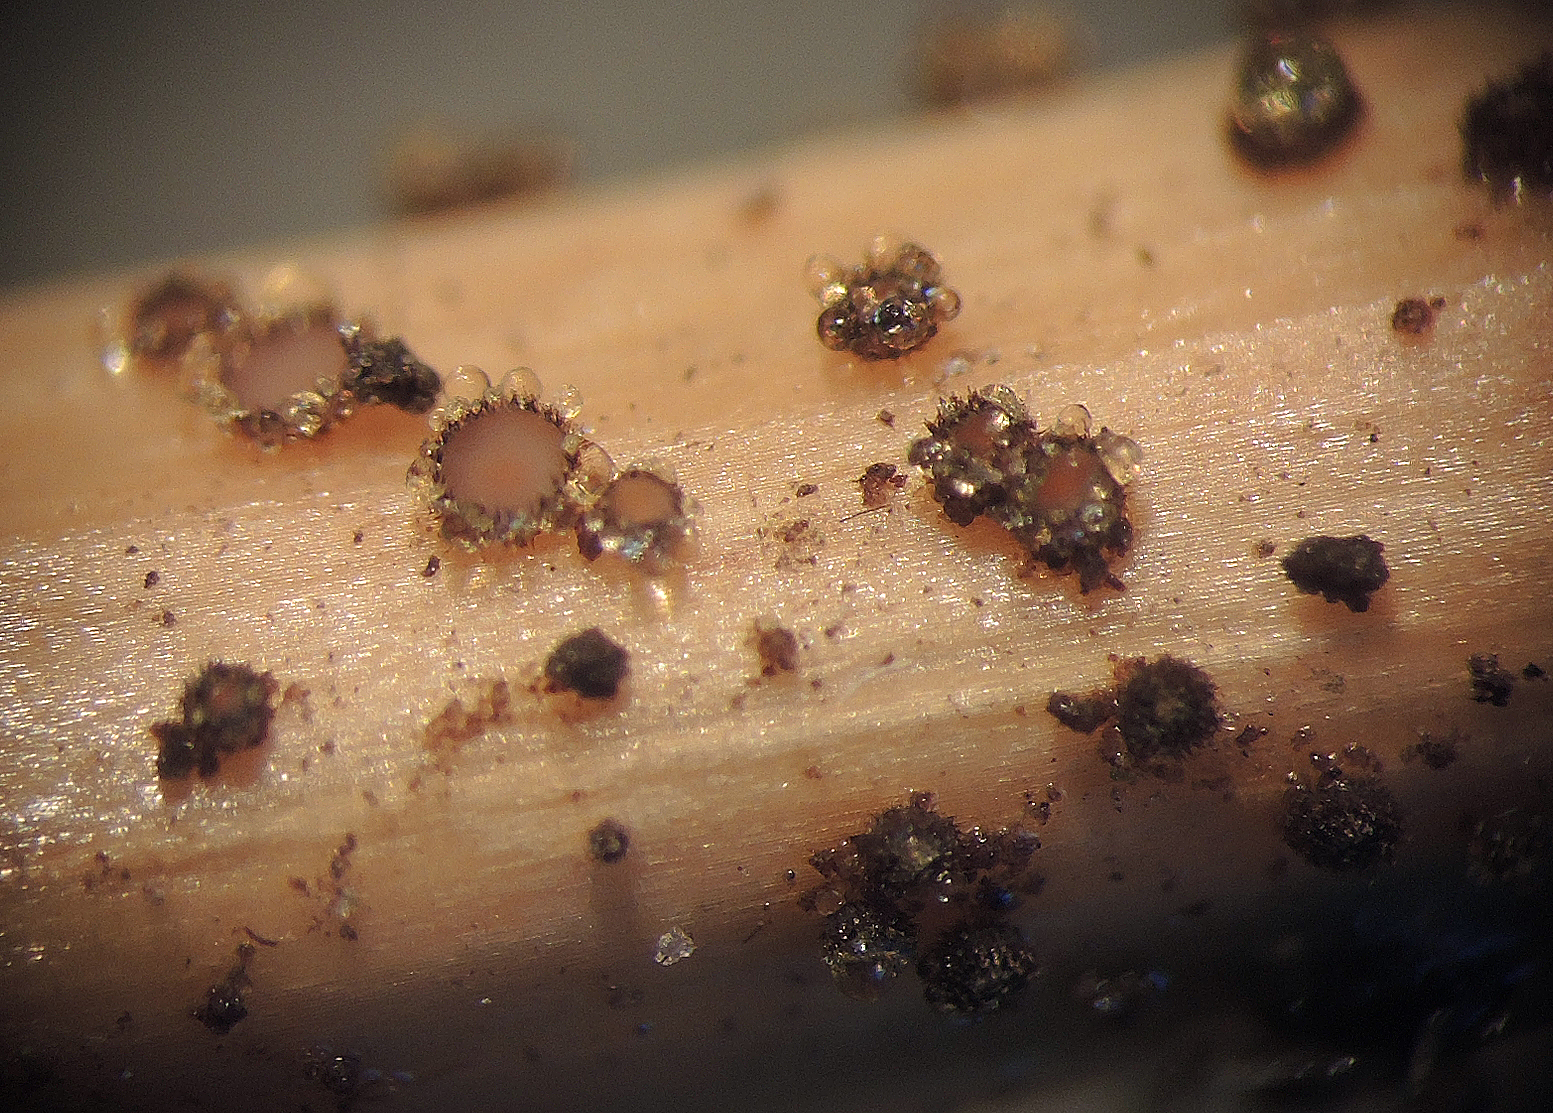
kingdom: Fungi
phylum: Ascomycota
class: Leotiomycetes
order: Helotiales
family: Solenopeziaceae
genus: Lasiobelonium
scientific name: Lasiobelonium nidulus
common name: rede-frynseskive
